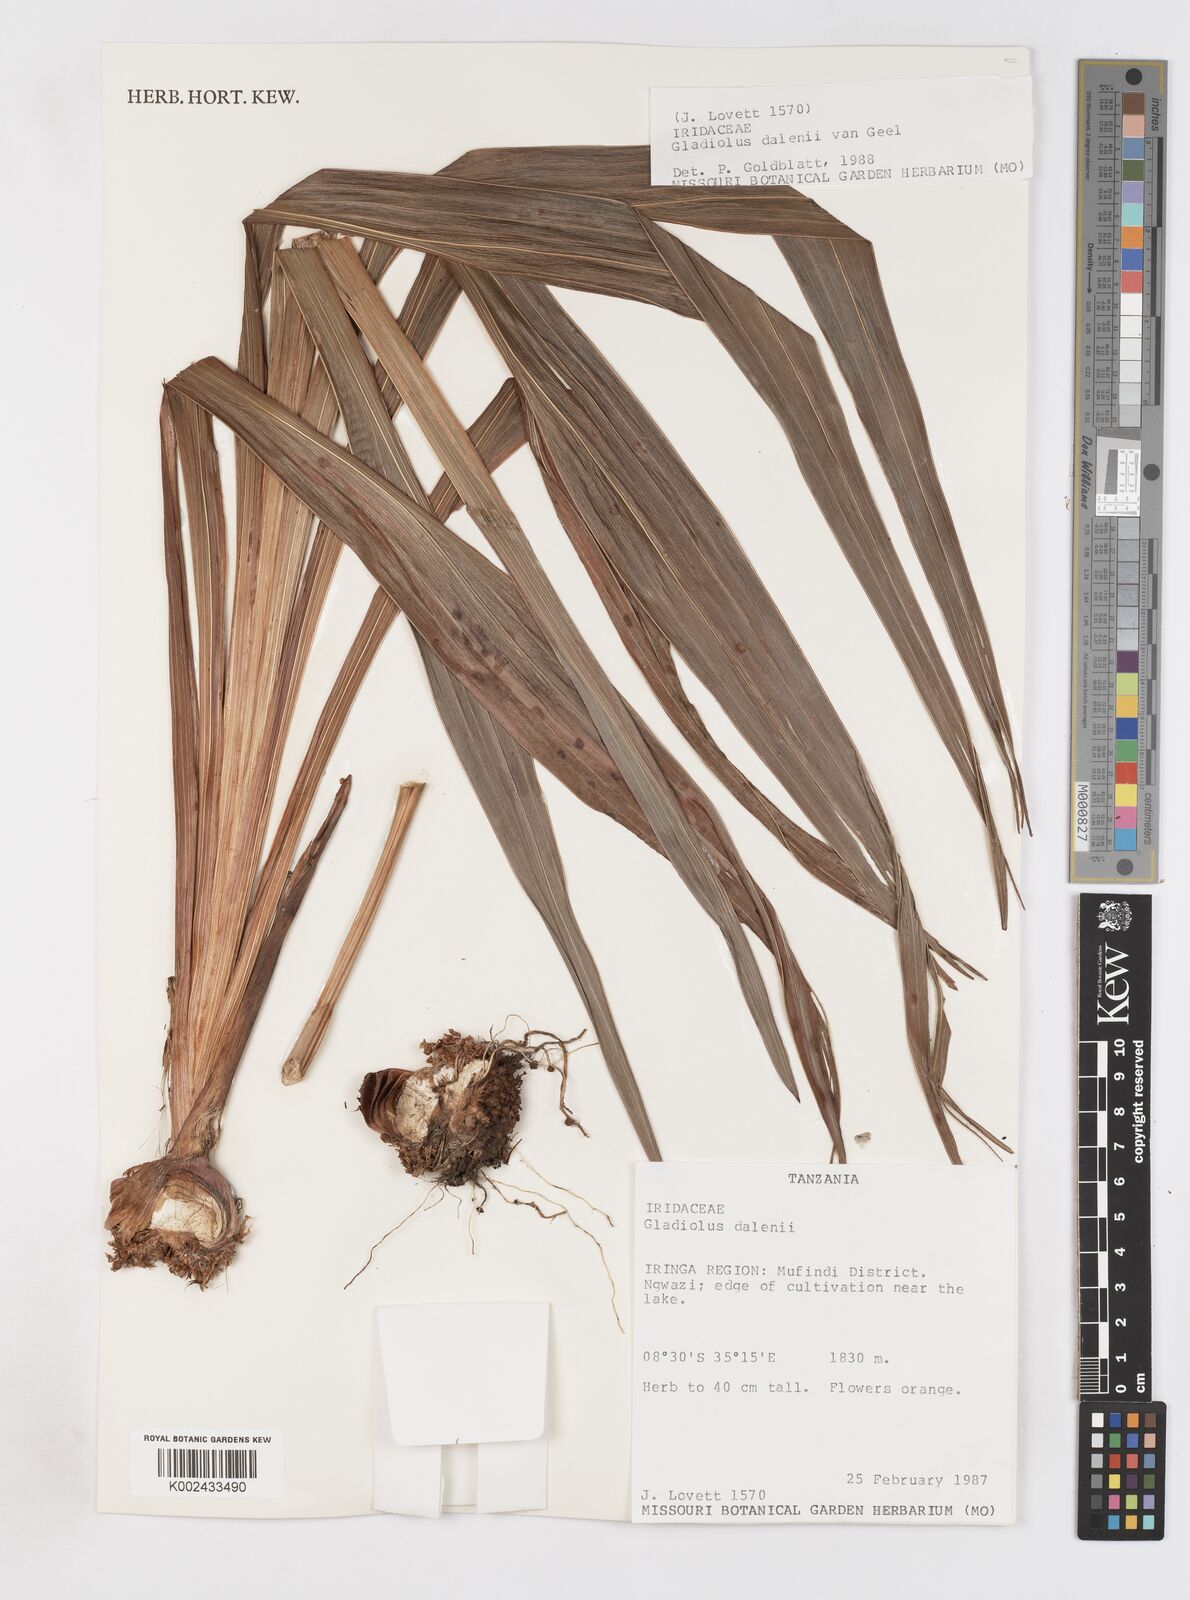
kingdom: Plantae
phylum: Tracheophyta
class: Liliopsida
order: Asparagales
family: Iridaceae
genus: Gladiolus
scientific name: Gladiolus dalenii
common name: Cornflag
